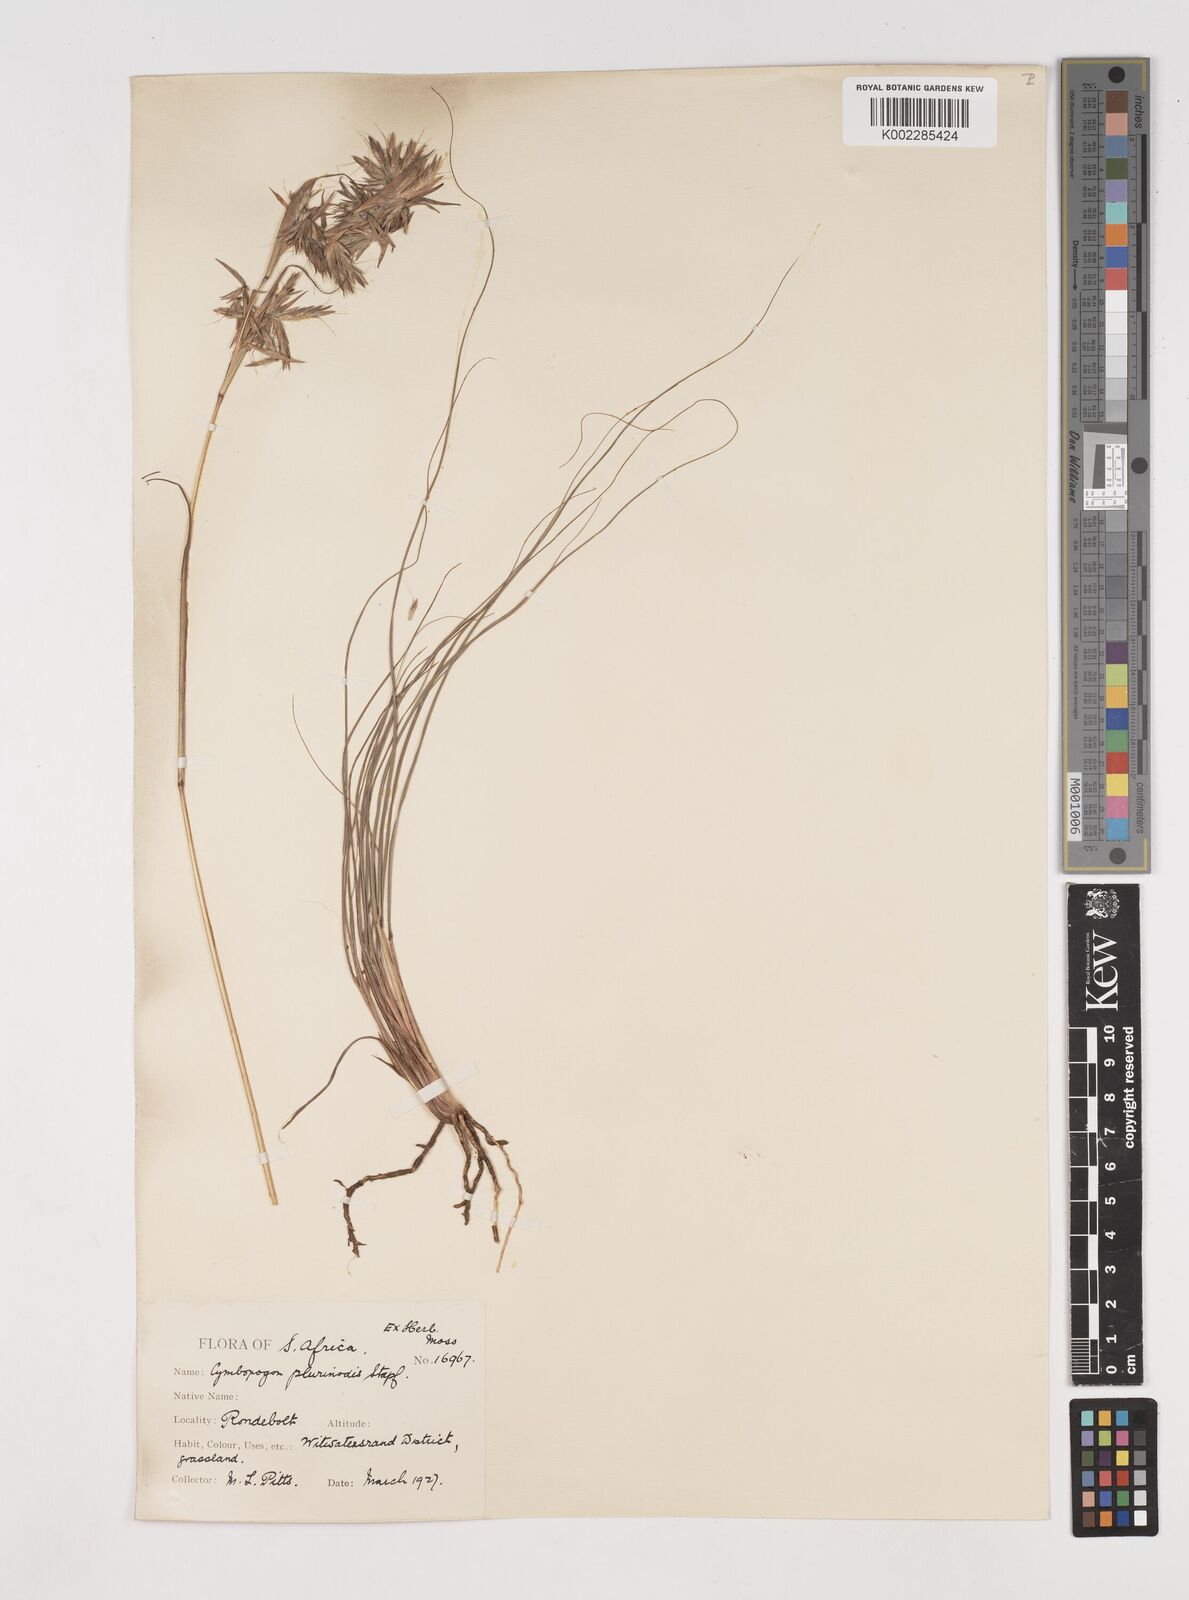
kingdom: Plantae
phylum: Tracheophyta
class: Liliopsida
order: Poales
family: Poaceae
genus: Cymbopogon
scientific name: Cymbopogon
